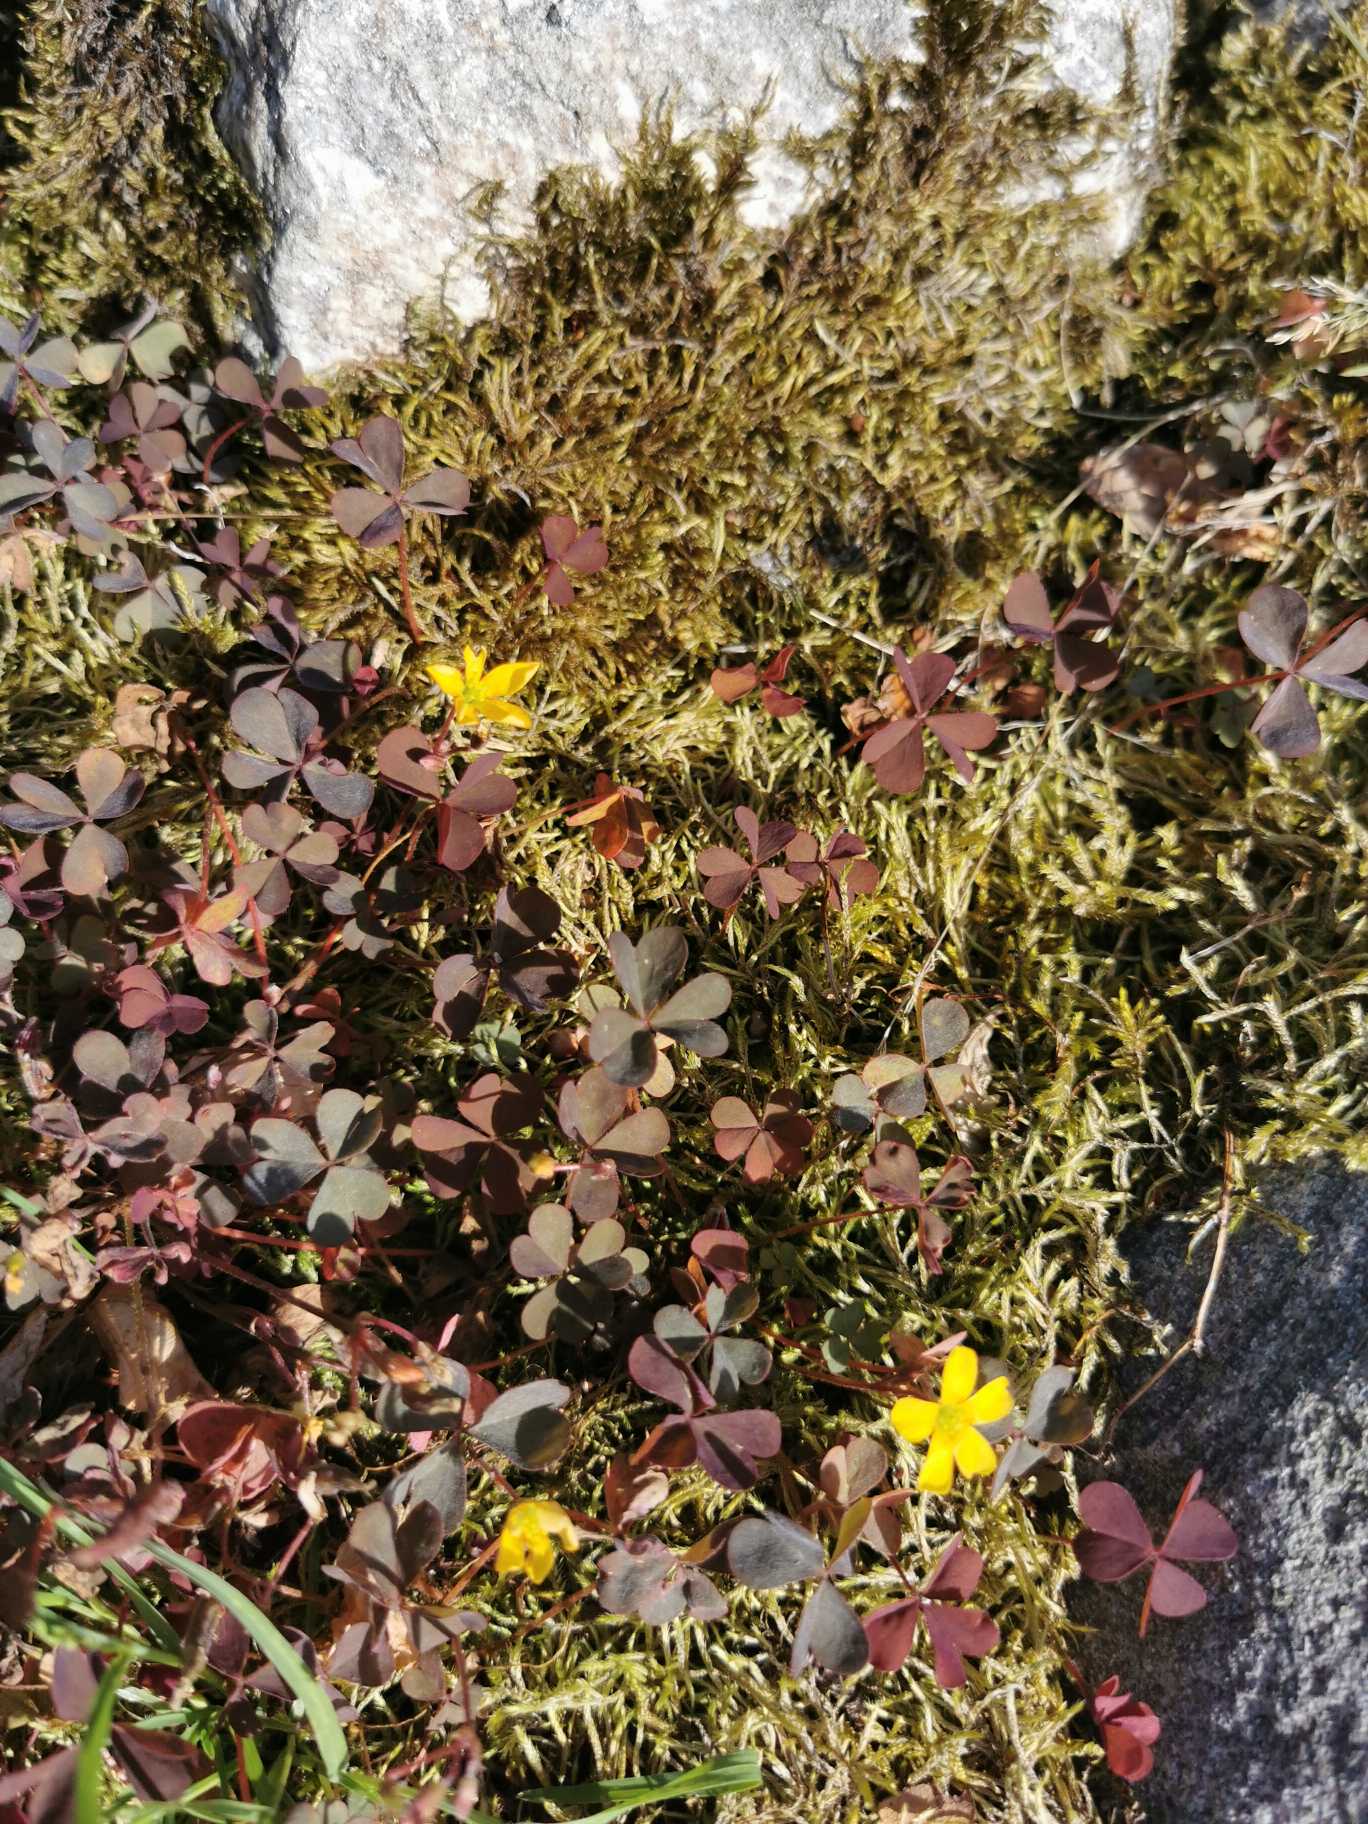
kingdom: Plantae
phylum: Tracheophyta
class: Magnoliopsida
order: Oxalidales
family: Oxalidaceae
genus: Oxalis
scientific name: Oxalis corniculata
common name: Nedliggende surkløver
